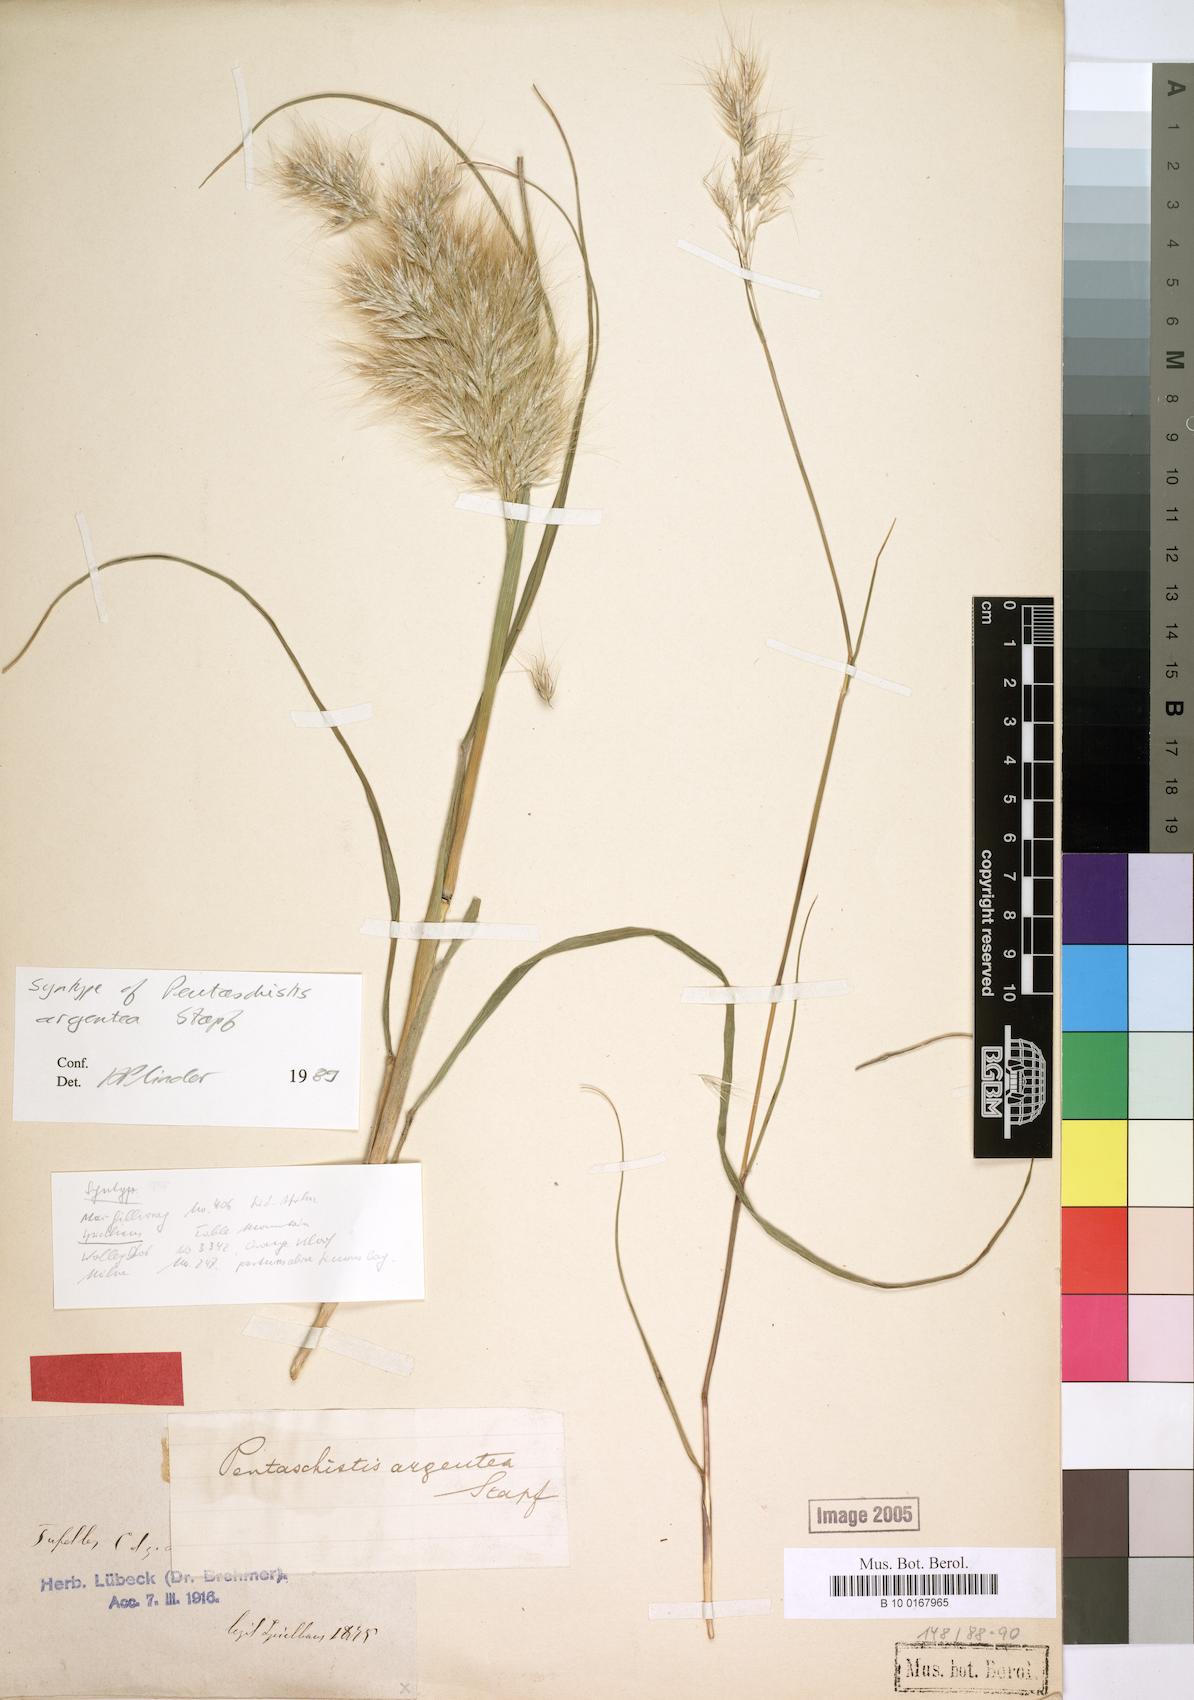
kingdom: Plantae
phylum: Tracheophyta
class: Liliopsida
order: Poales
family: Poaceae
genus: Pentameris
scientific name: Pentameris argentea
